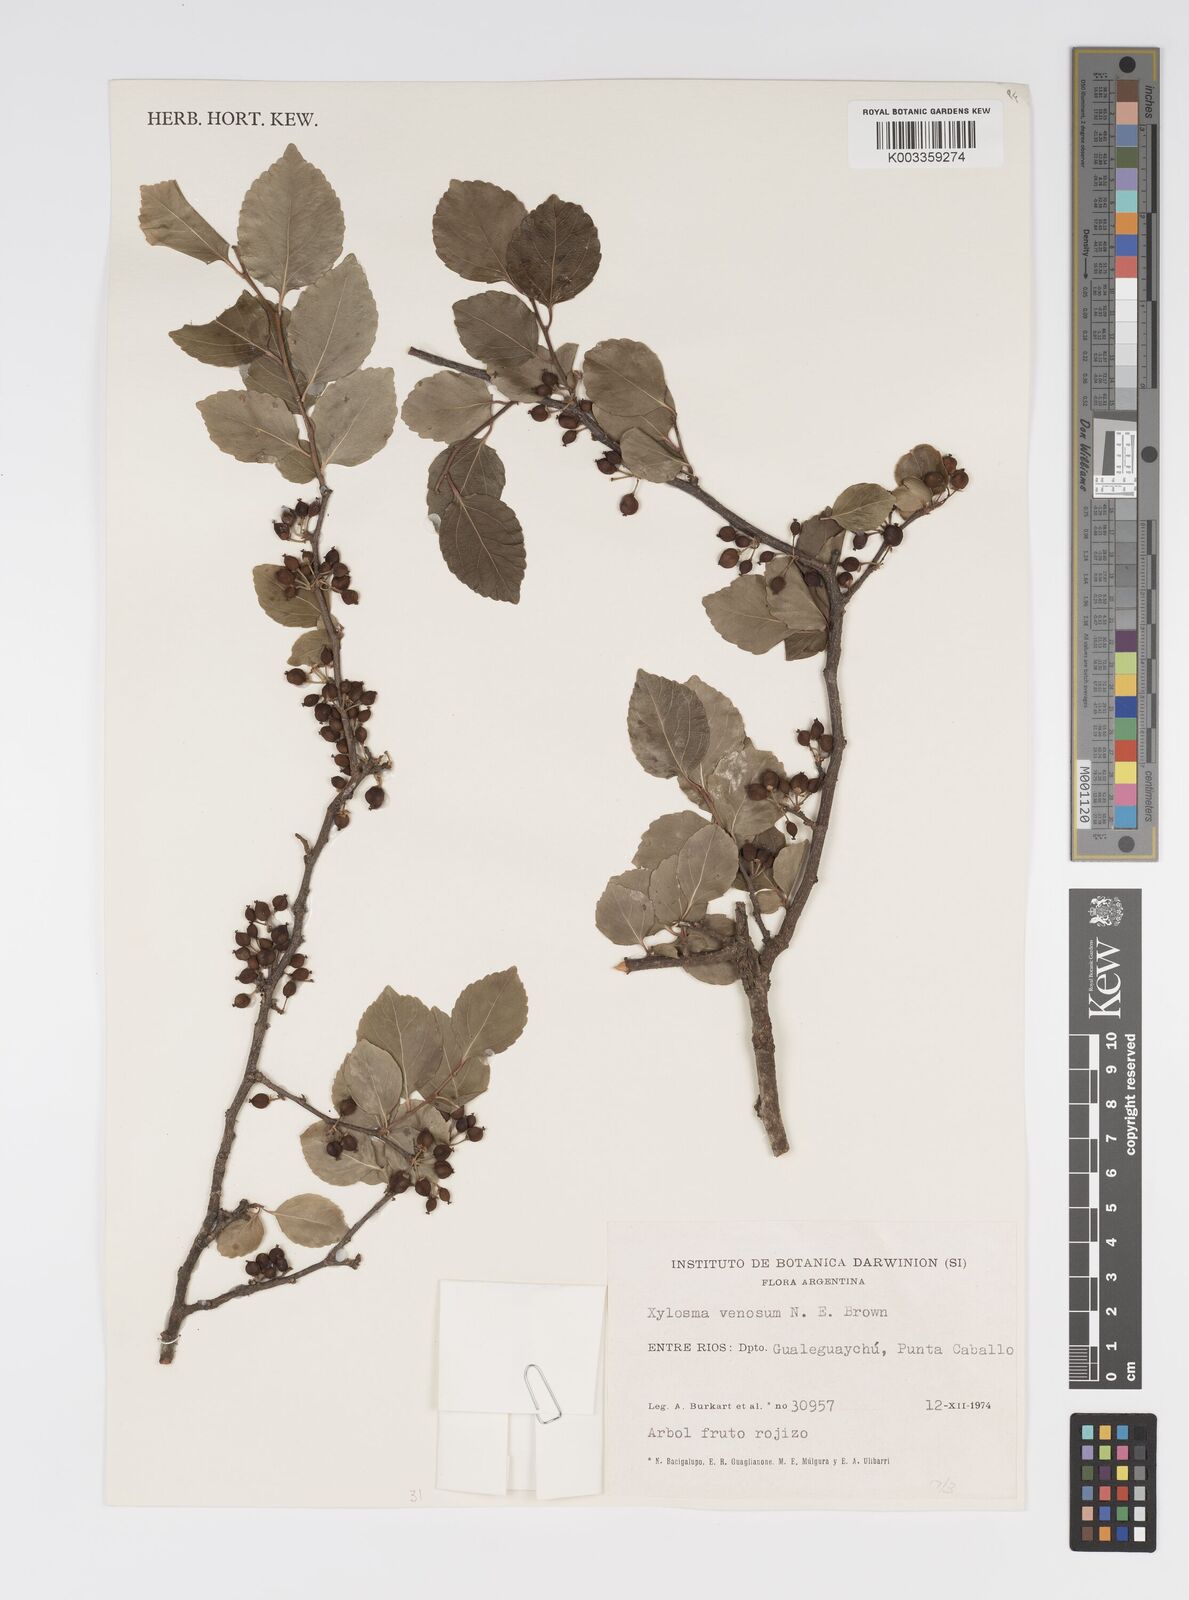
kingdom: Plantae
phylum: Tracheophyta
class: Magnoliopsida
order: Malpighiales
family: Salicaceae
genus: Xylosma
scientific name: Xylosma venosa
